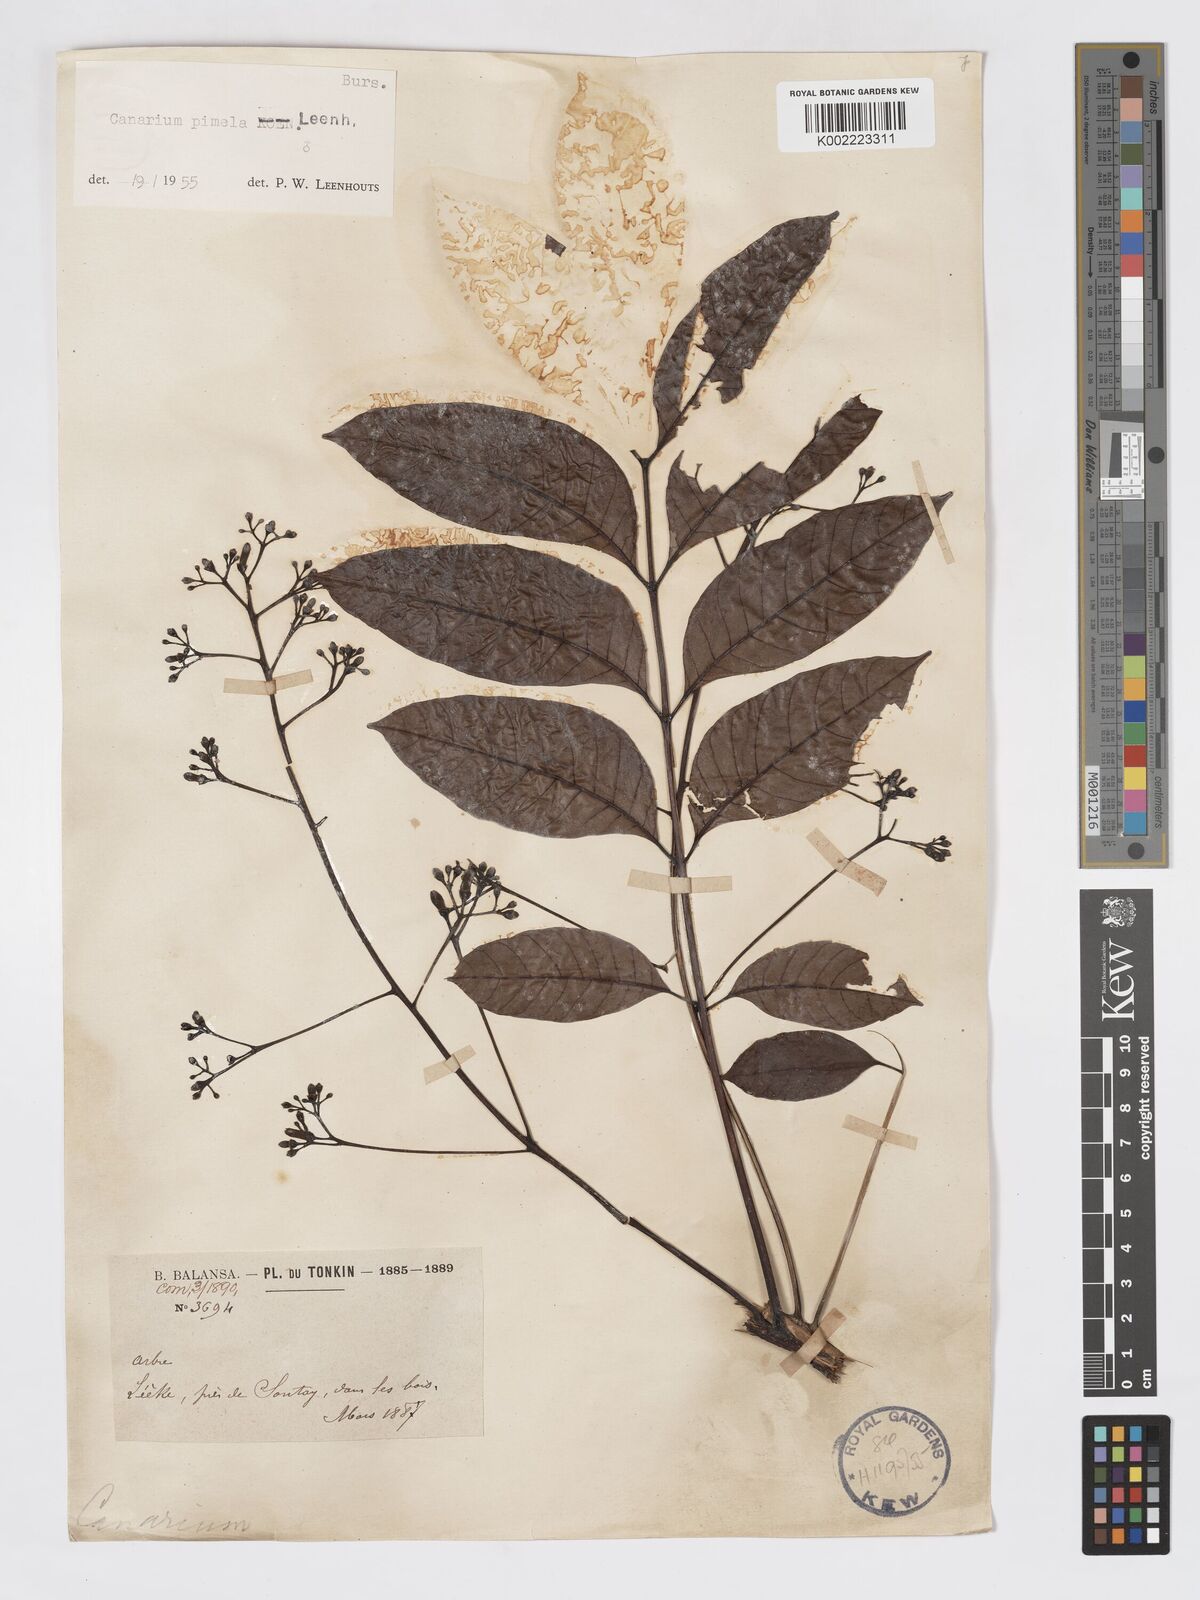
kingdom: Plantae
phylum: Tracheophyta
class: Magnoliopsida
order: Sapindales
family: Burseraceae
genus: Canarium
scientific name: Canarium
